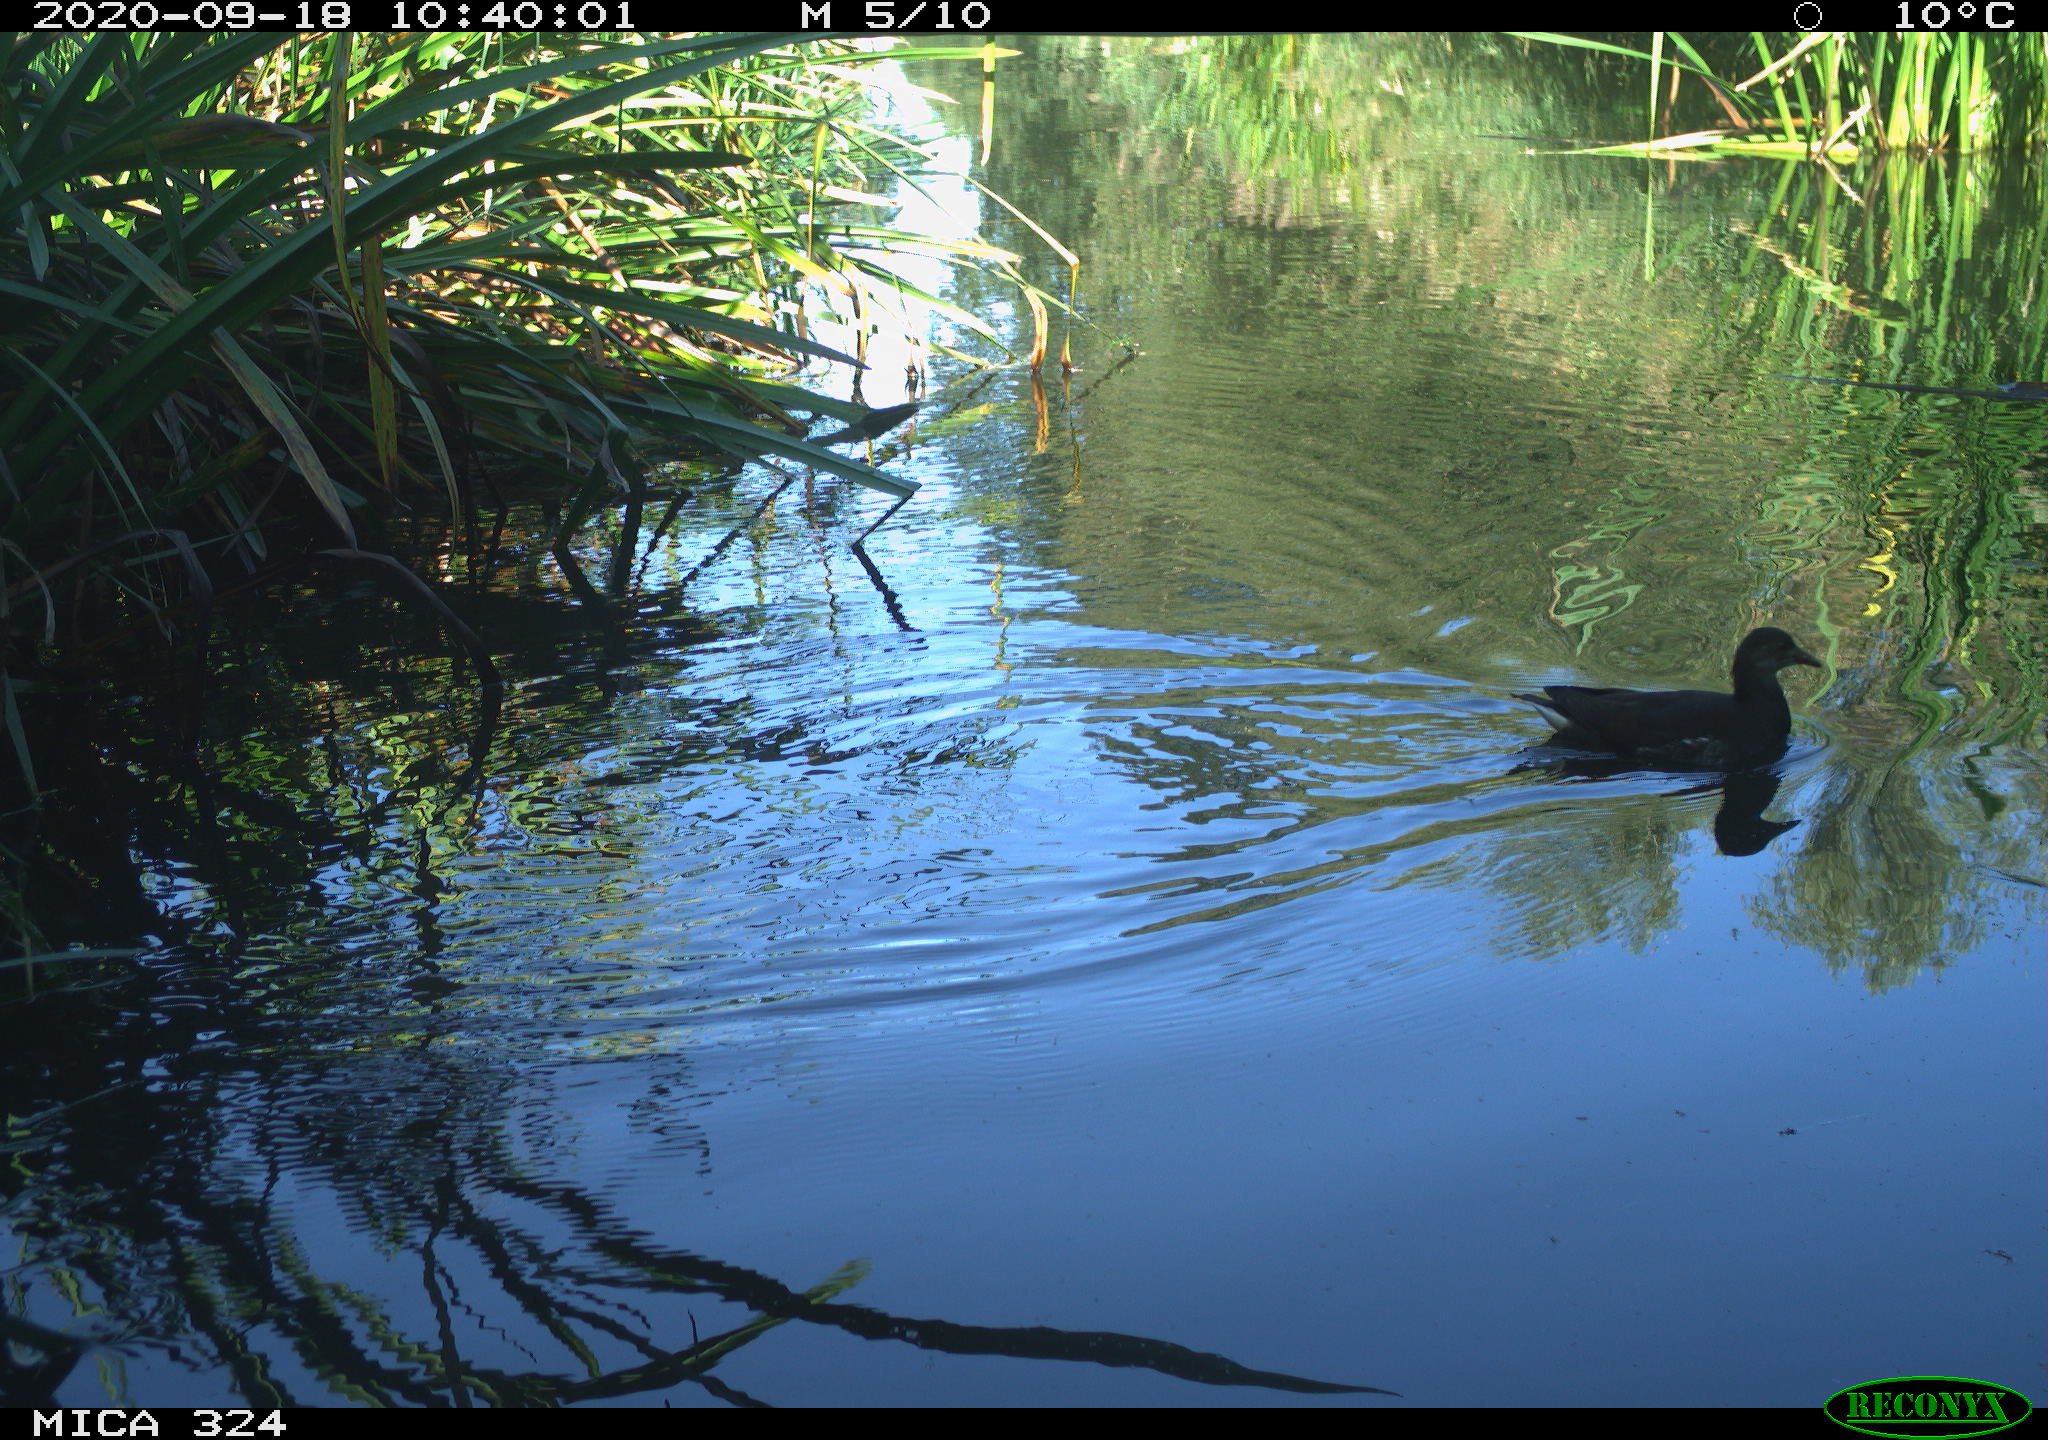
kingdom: Animalia
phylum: Chordata
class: Aves
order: Gruiformes
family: Rallidae
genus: Gallinula
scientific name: Gallinula chloropus
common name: Common moorhen
